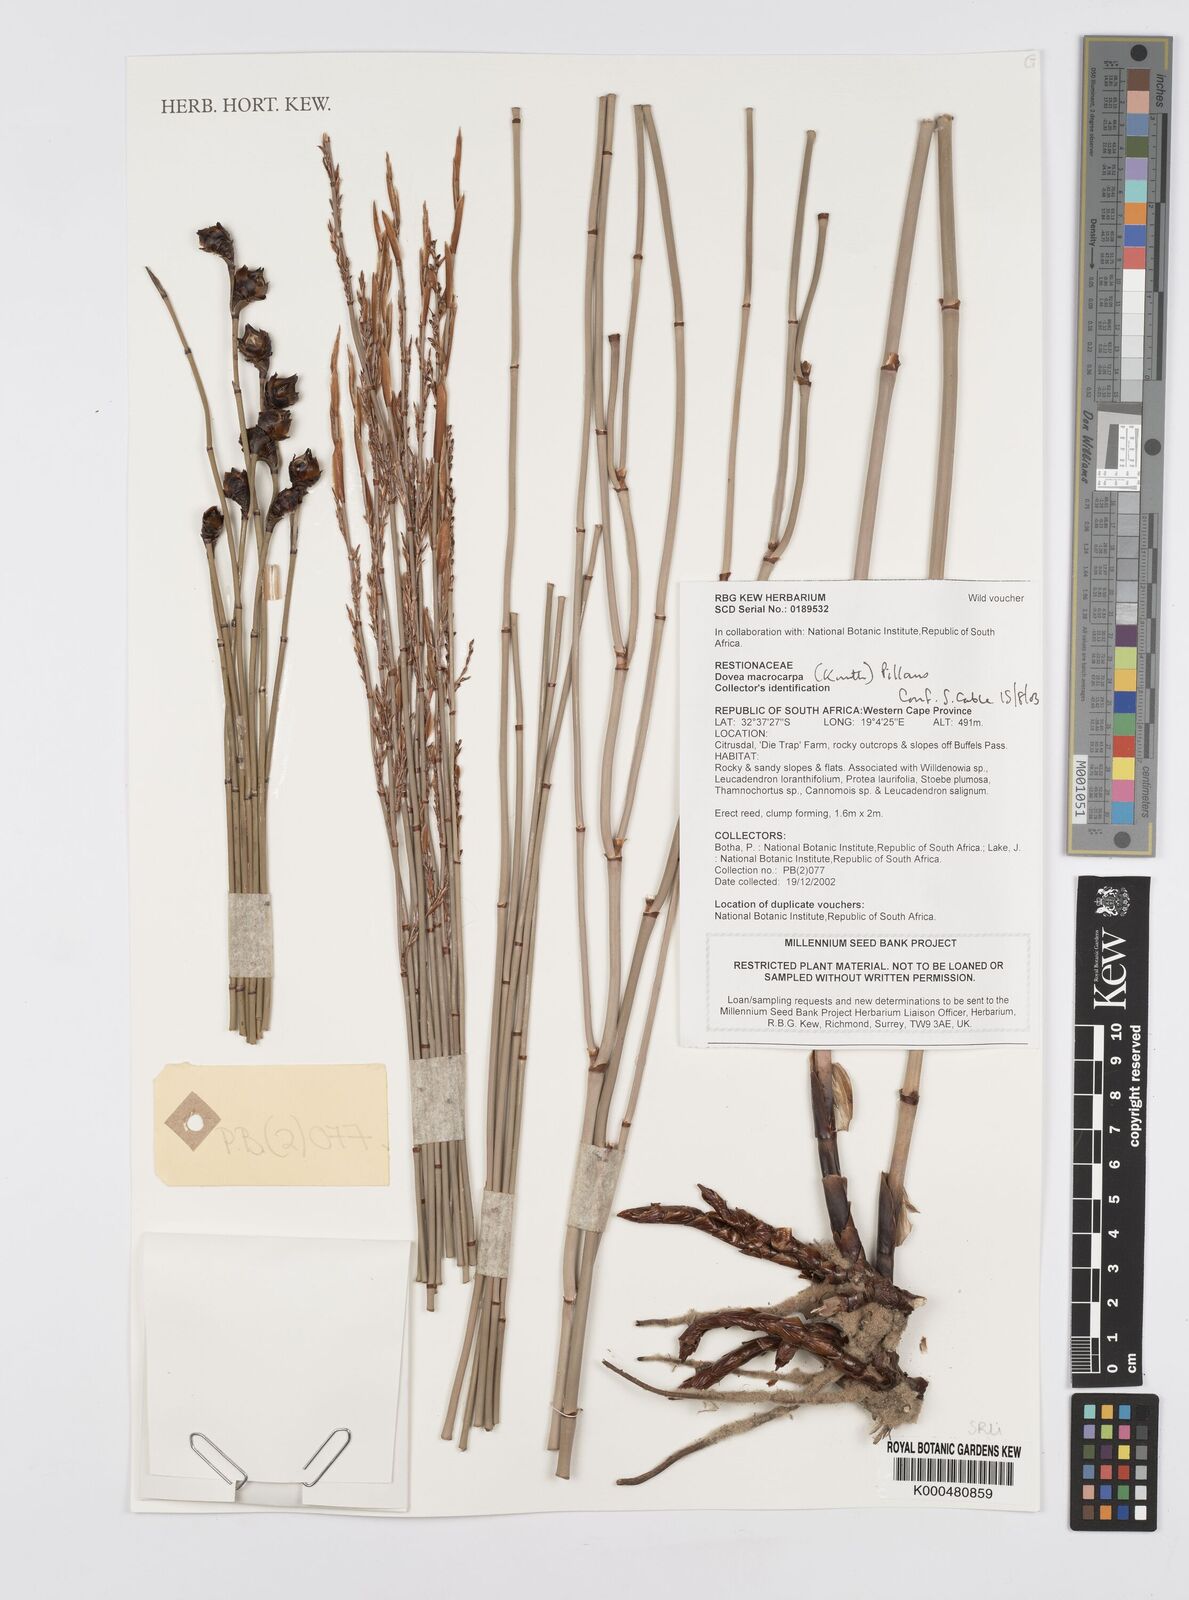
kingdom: Plantae
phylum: Tracheophyta
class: Liliopsida
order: Poales
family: Restionaceae
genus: Elegia
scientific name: Elegia macrocarpa
